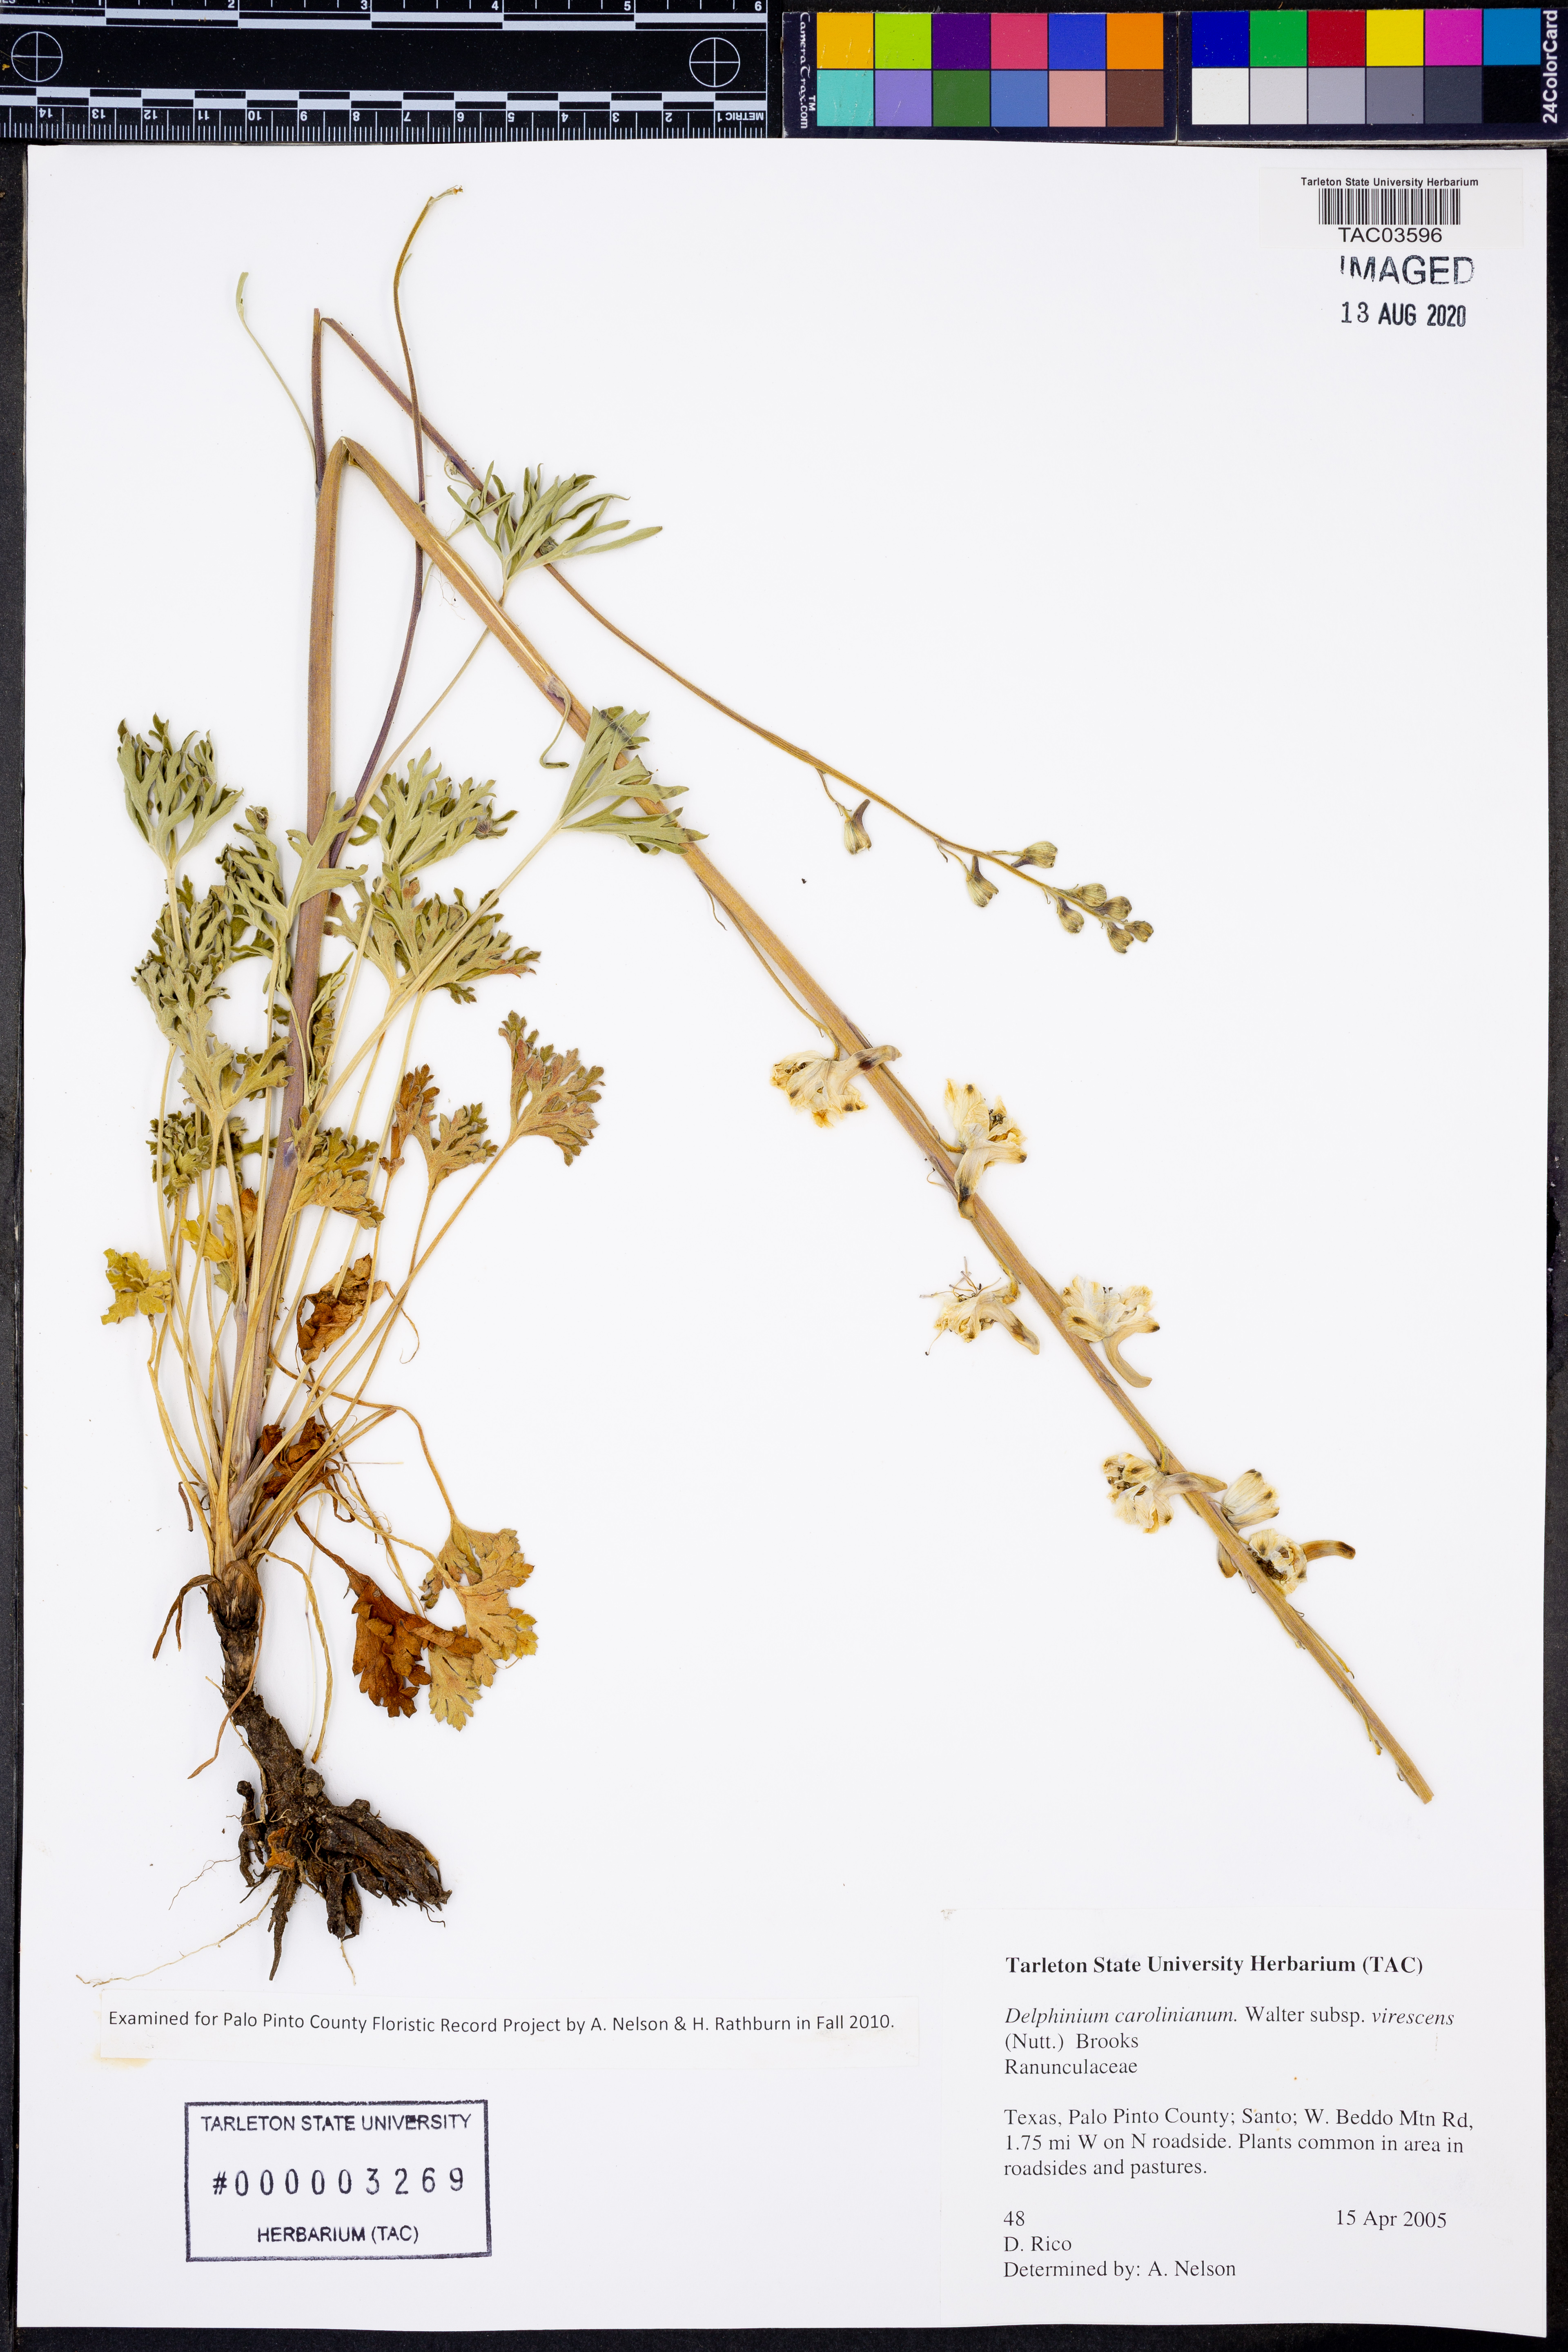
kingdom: Plantae
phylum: Tracheophyta
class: Magnoliopsida
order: Ranunculales
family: Ranunculaceae
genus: Delphinium
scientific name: Delphinium carolinianum
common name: Carolina larkspur
